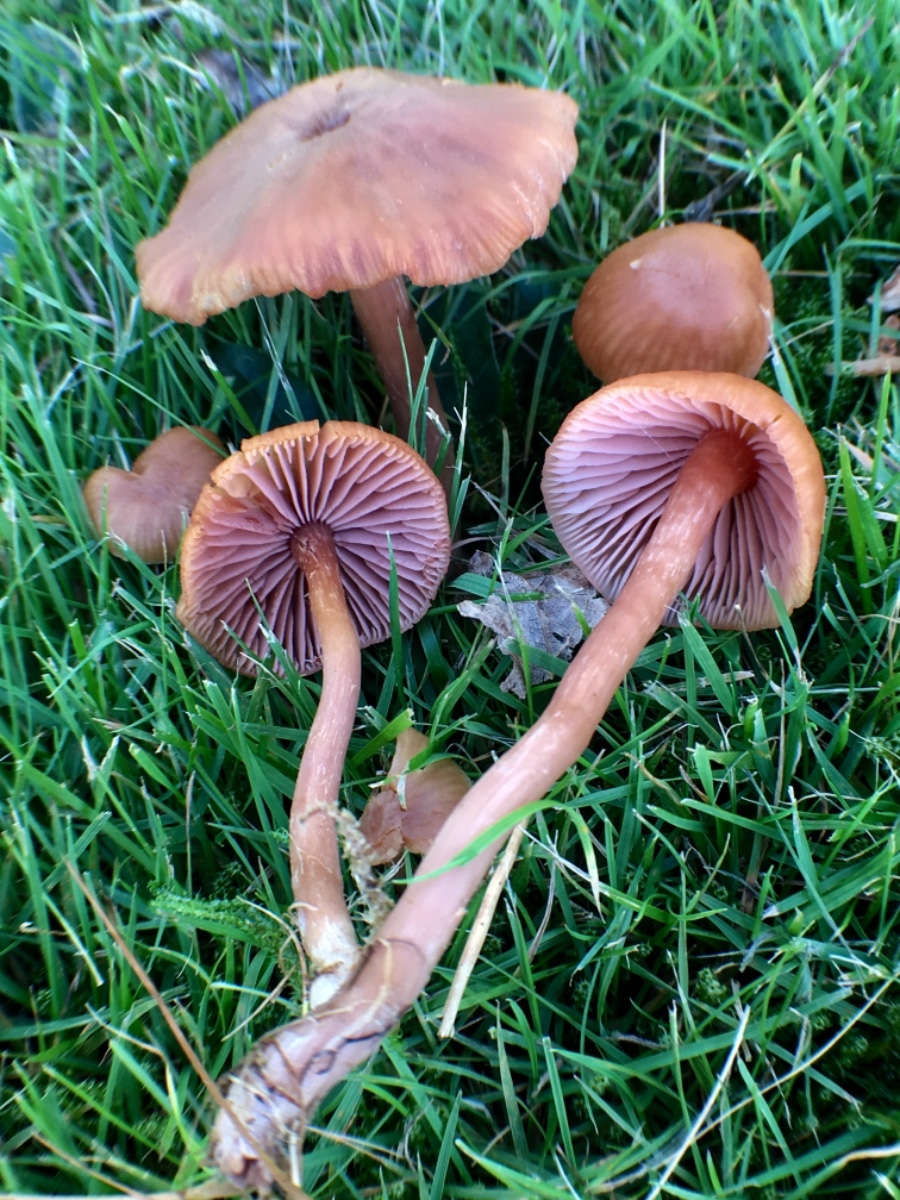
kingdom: Fungi
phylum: Basidiomycota
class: Agaricomycetes
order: Agaricales
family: Hydnangiaceae
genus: Laccaria
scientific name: Laccaria bicolor
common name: tvefarvet ametysthat
